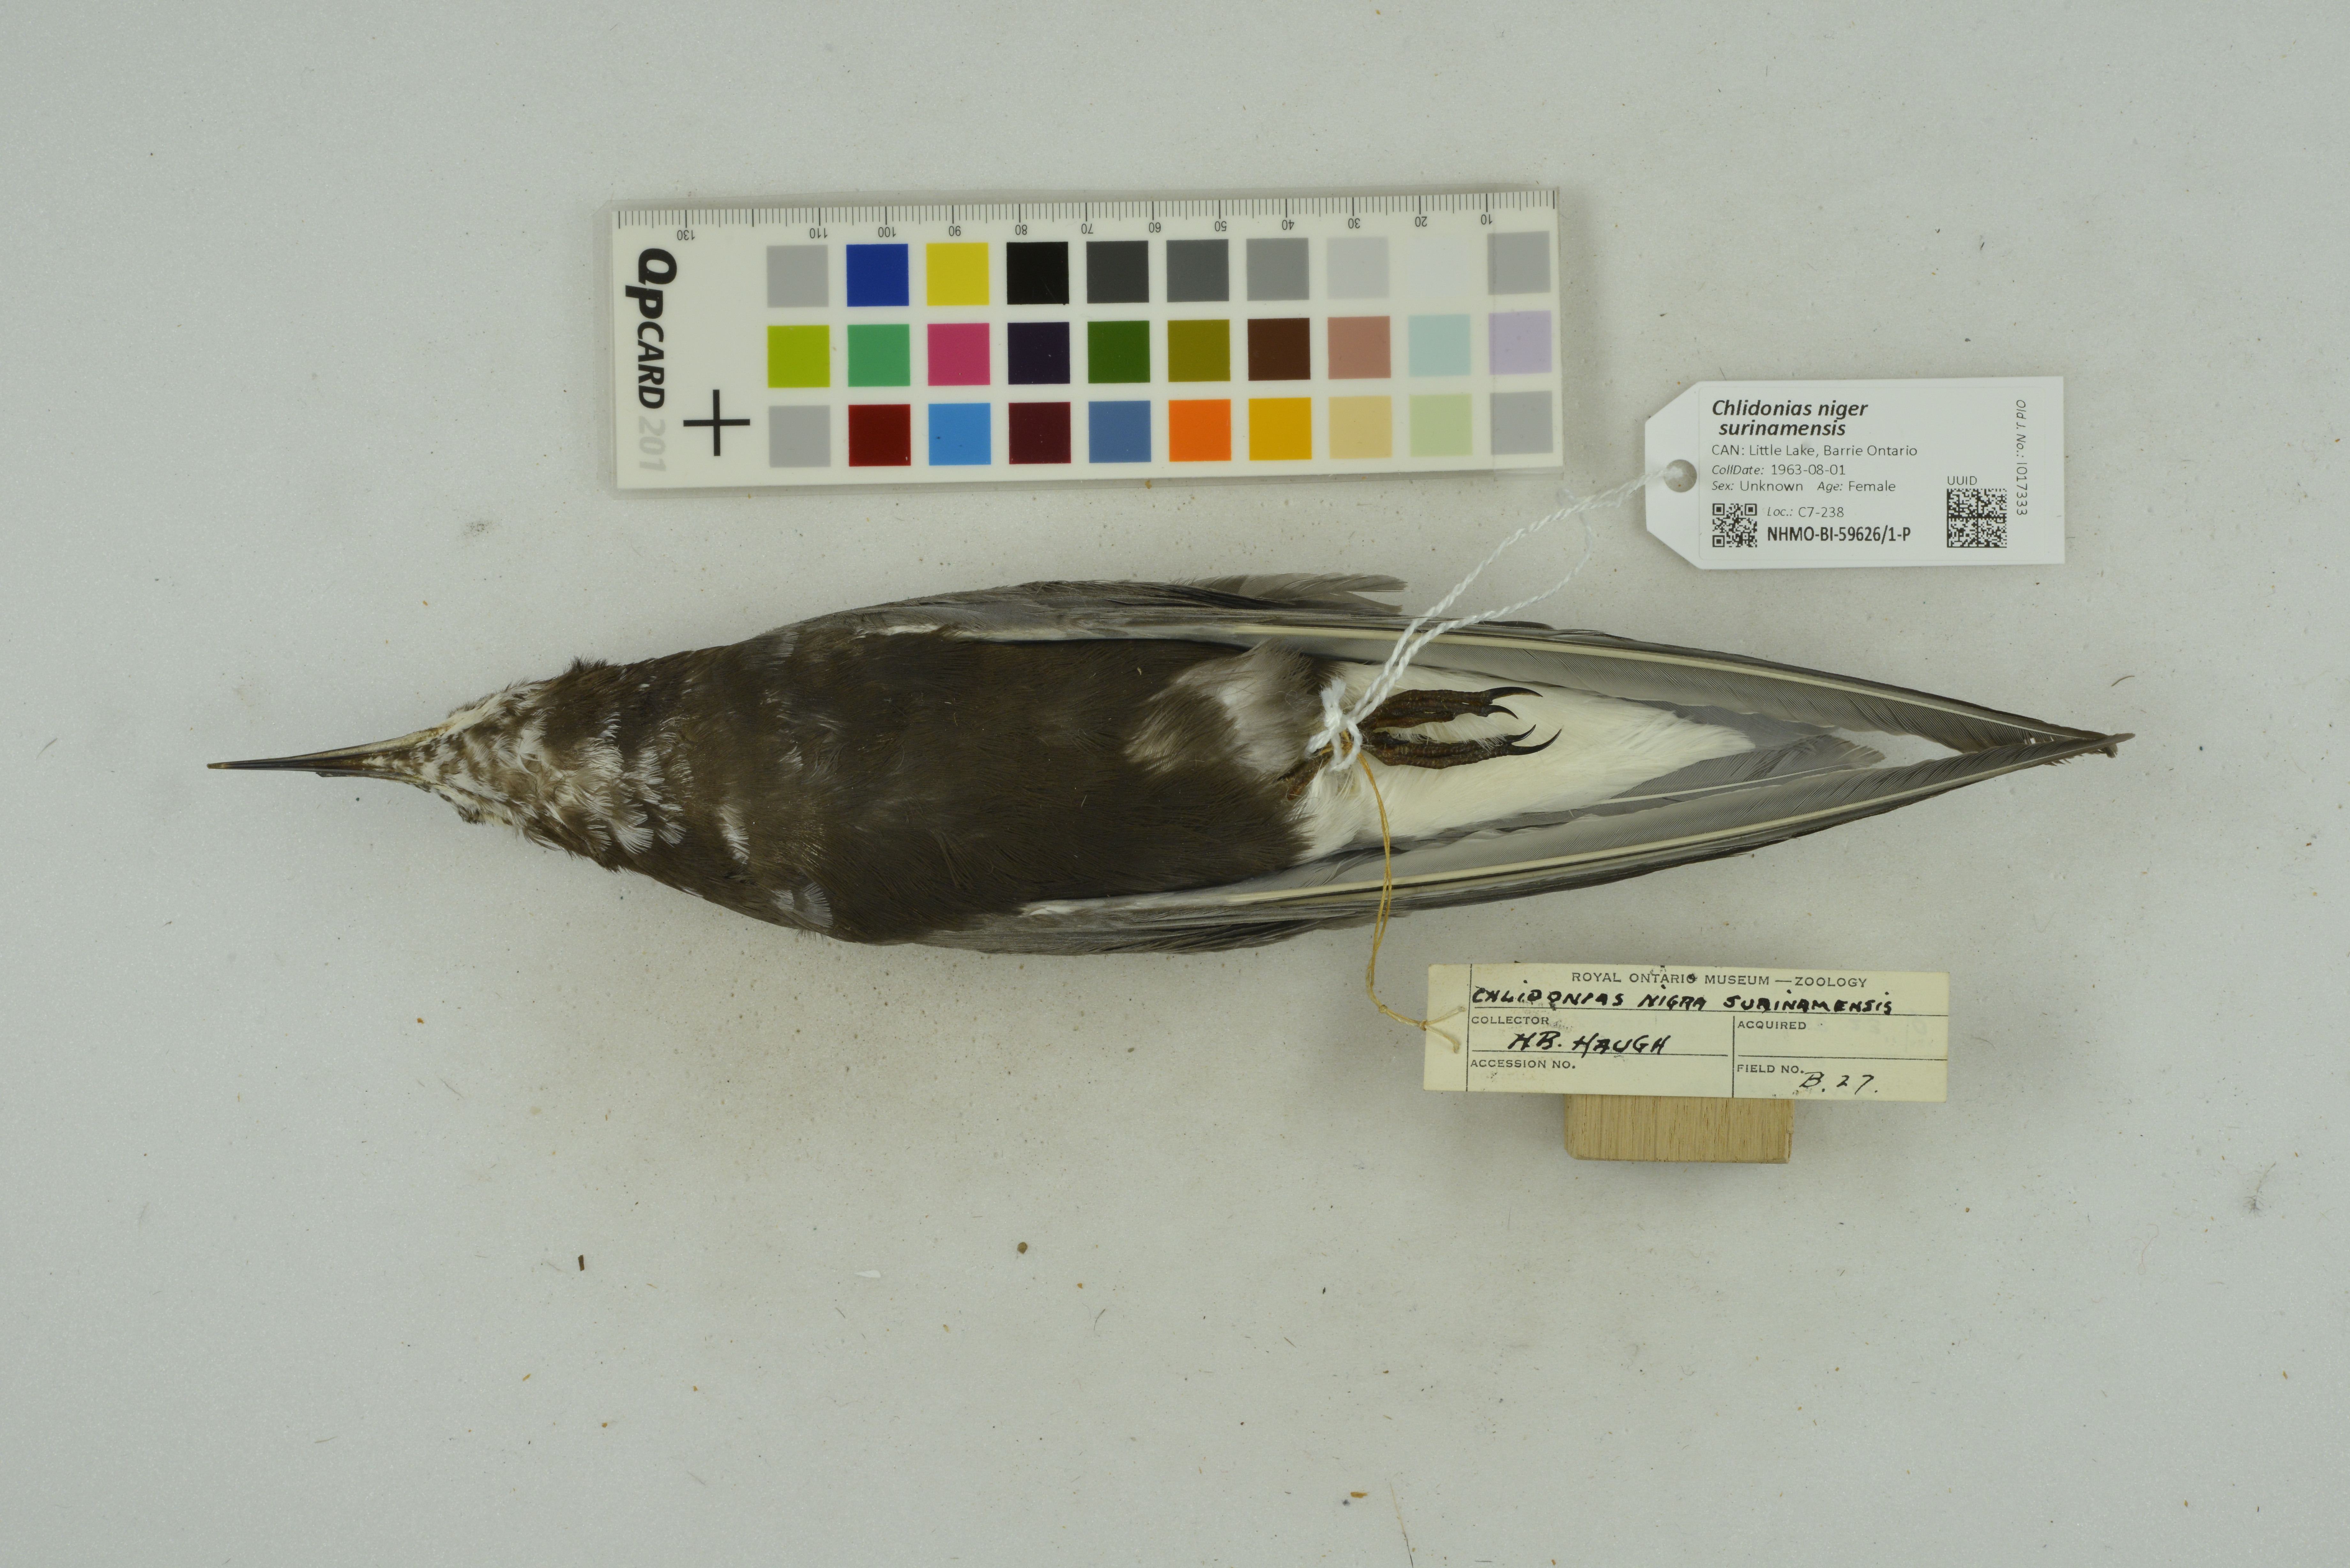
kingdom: Animalia
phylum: Chordata
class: Aves
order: Charadriiformes
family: Laridae
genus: Chlidonias
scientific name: Chlidonias niger
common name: Black tern
